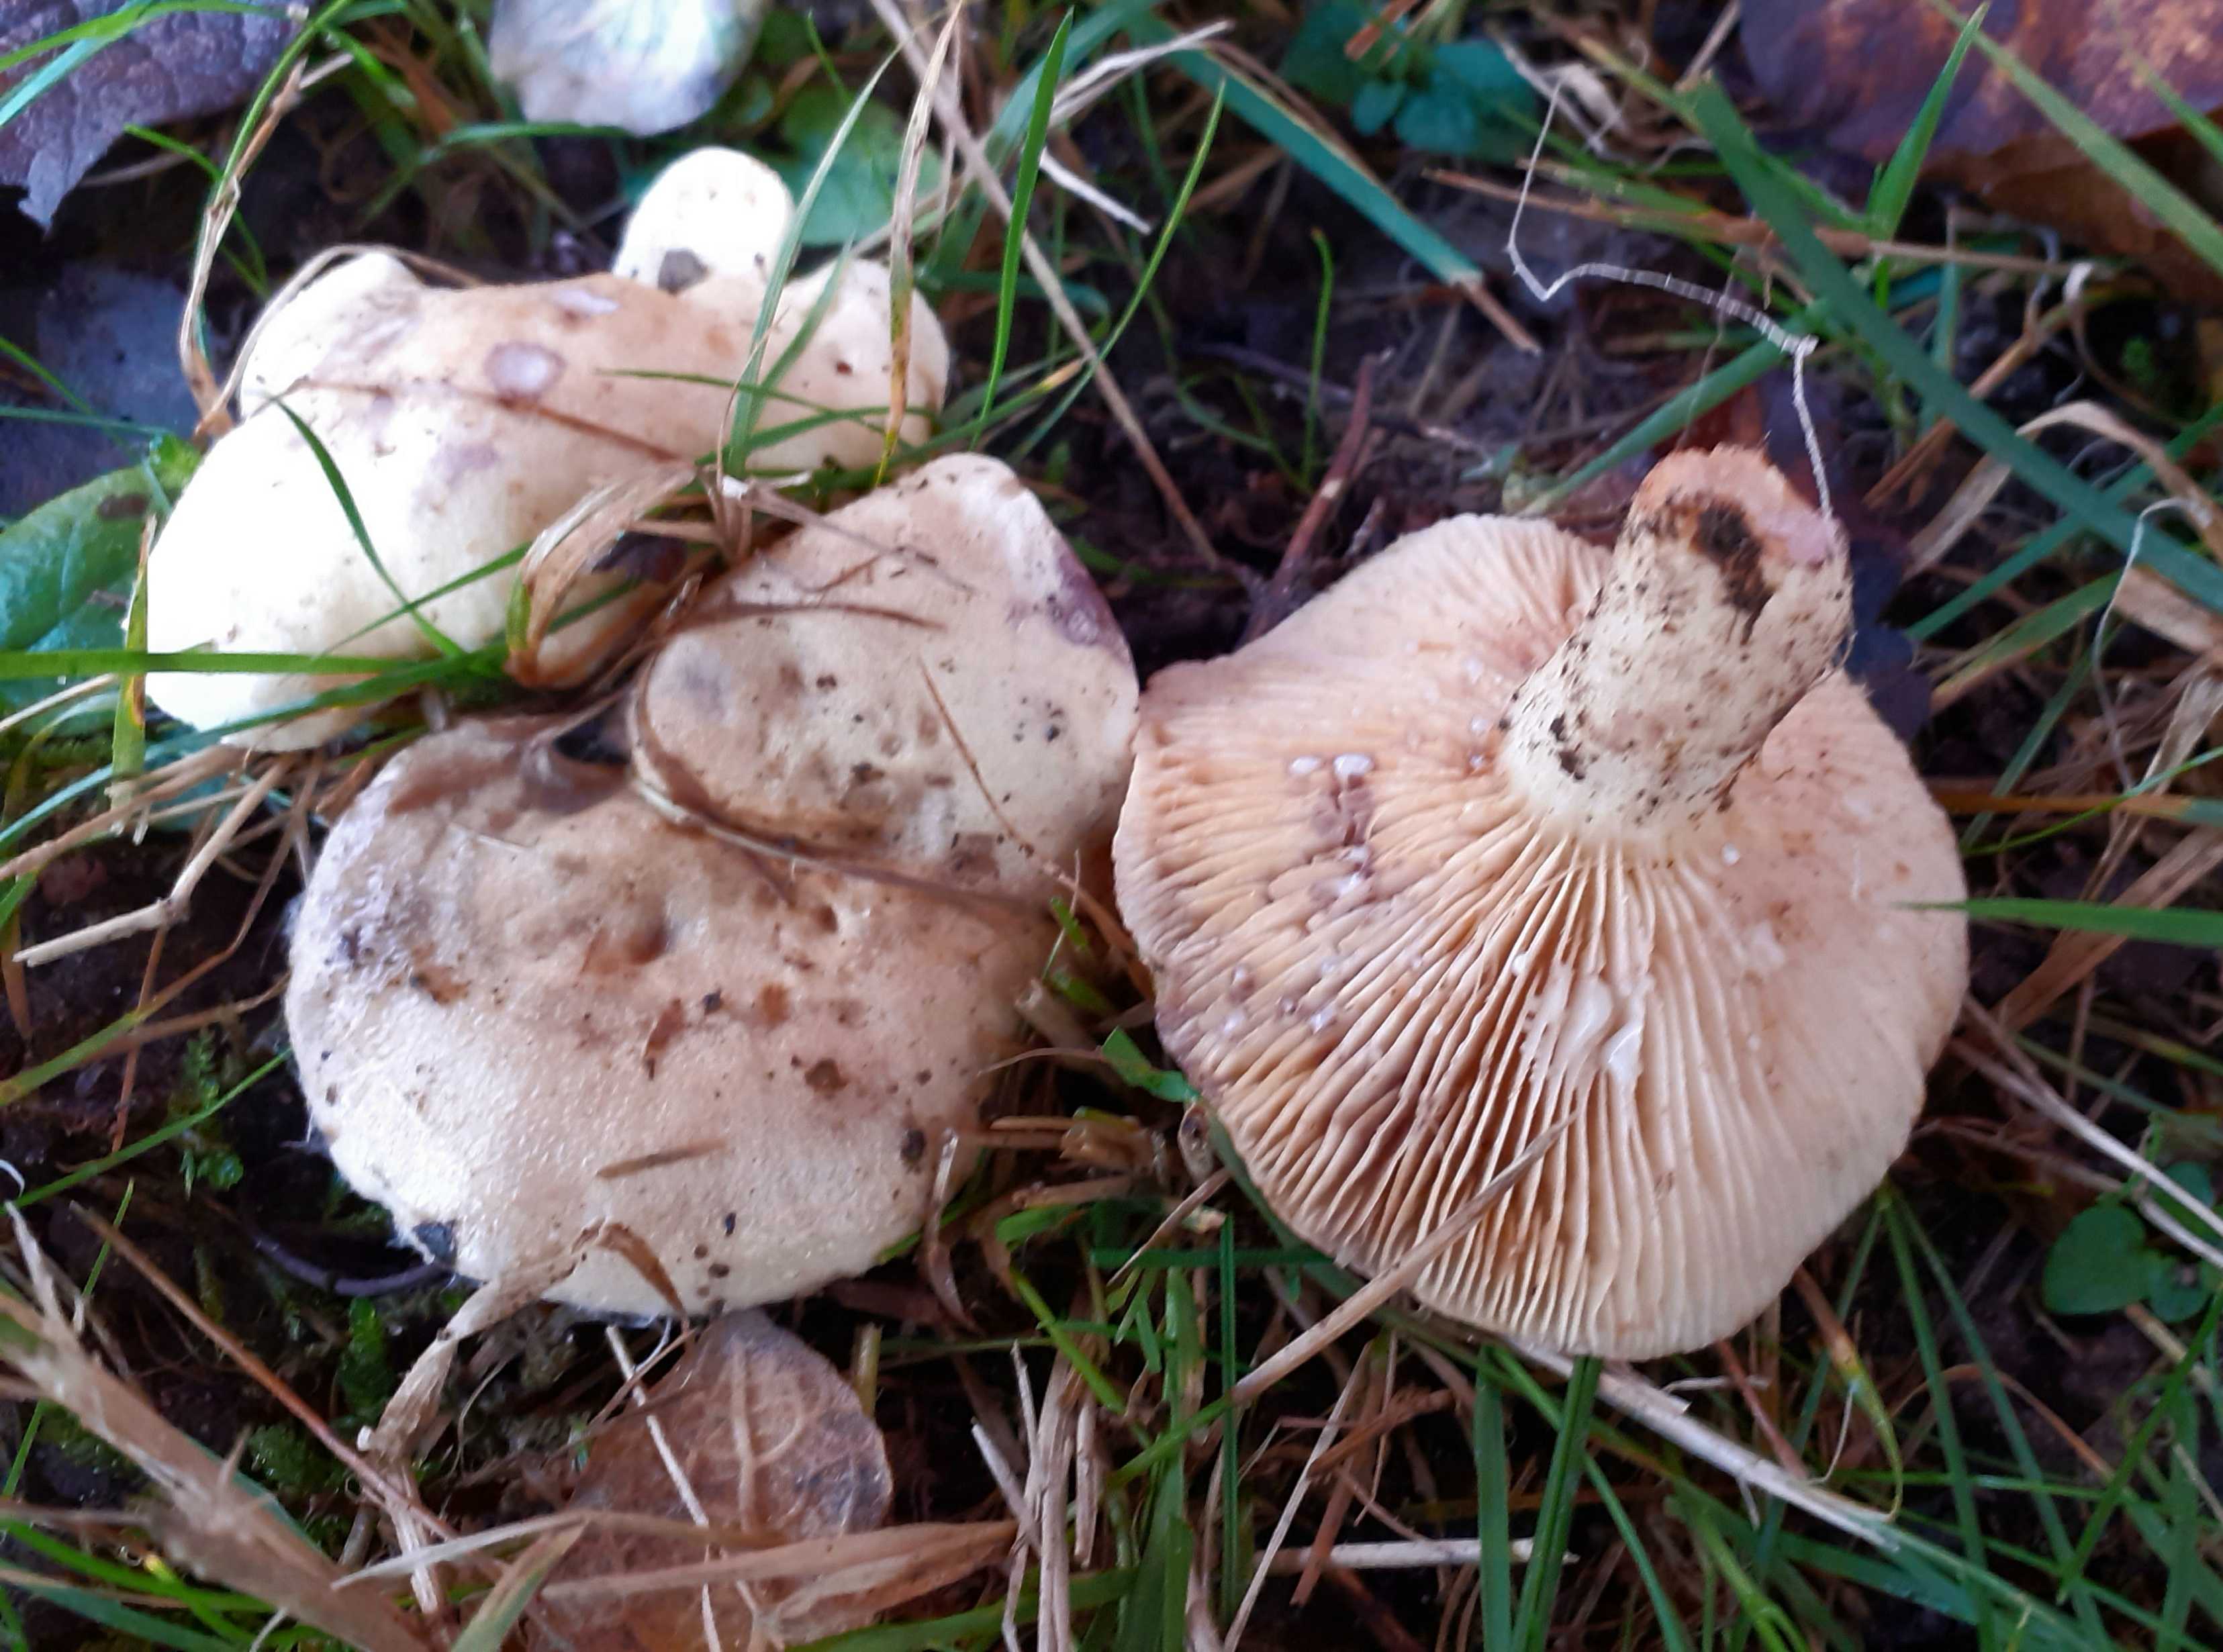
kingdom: Fungi
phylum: Basidiomycota
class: Agaricomycetes
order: Russulales
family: Russulaceae
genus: Lactarius
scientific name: Lactarius aspideus
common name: pile-mælkehat
